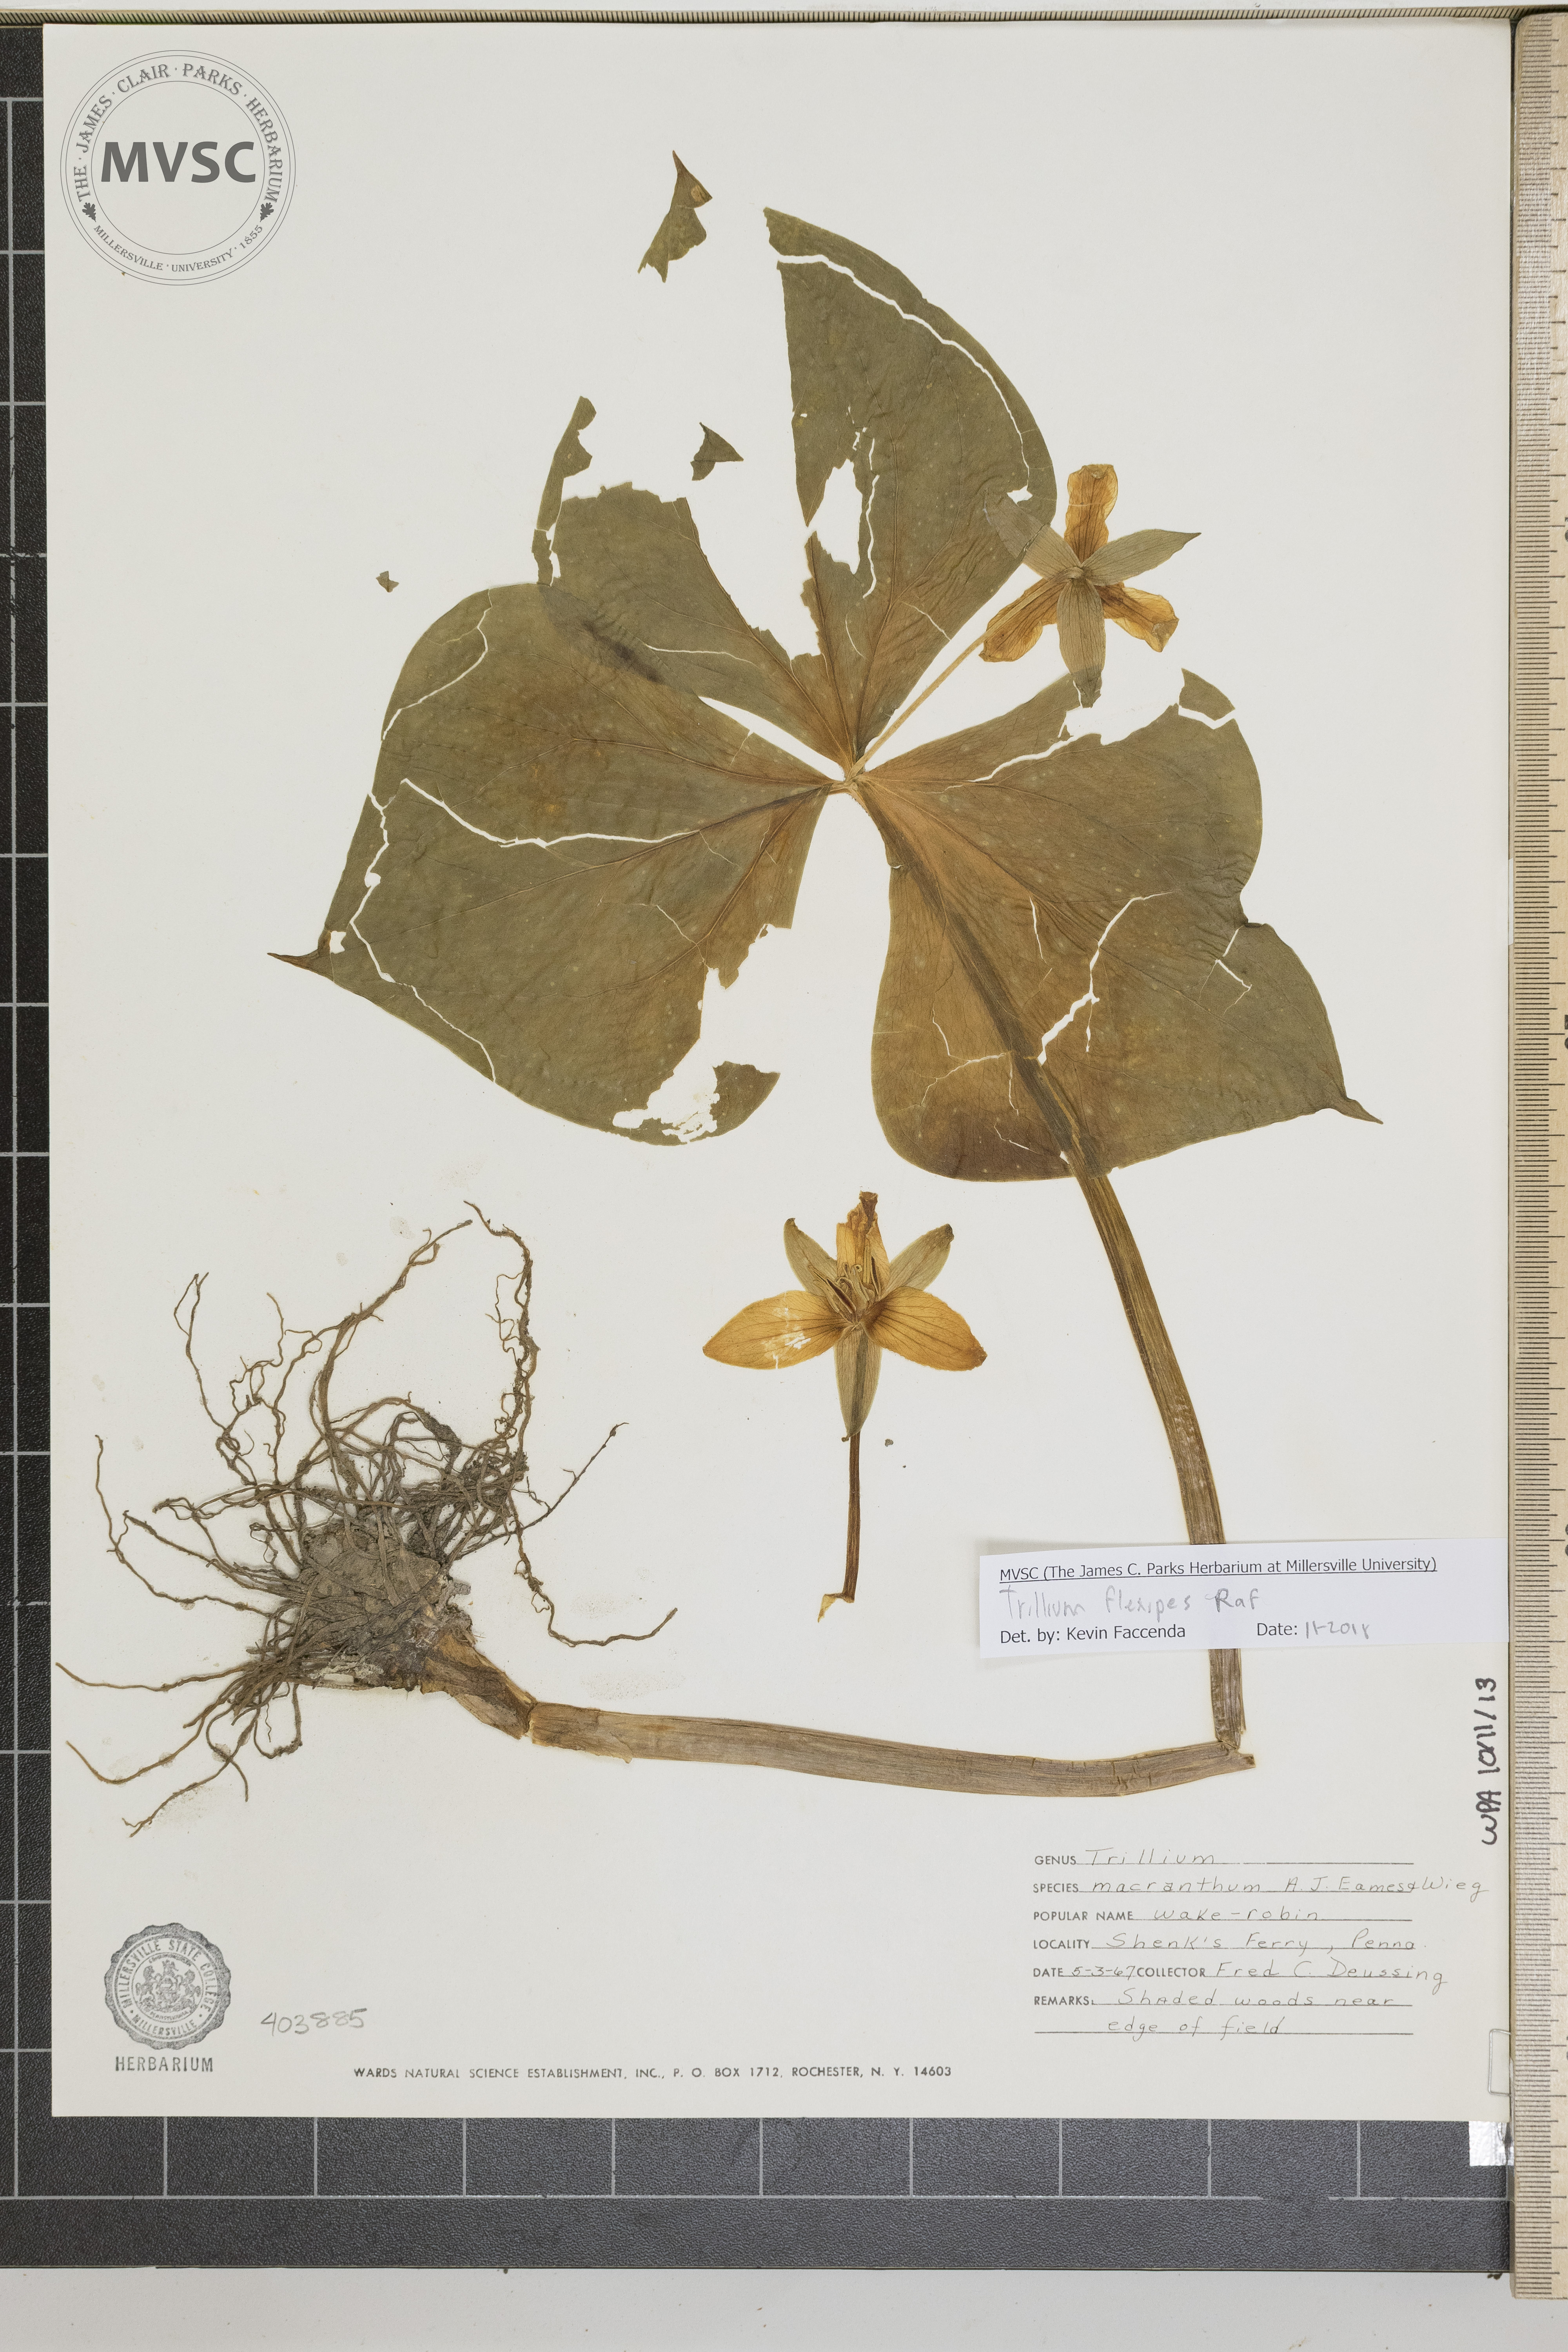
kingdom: Plantae
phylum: Tracheophyta
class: Liliopsida
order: Liliales
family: Melanthiaceae
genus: Trillium
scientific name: Trillium flexipes
